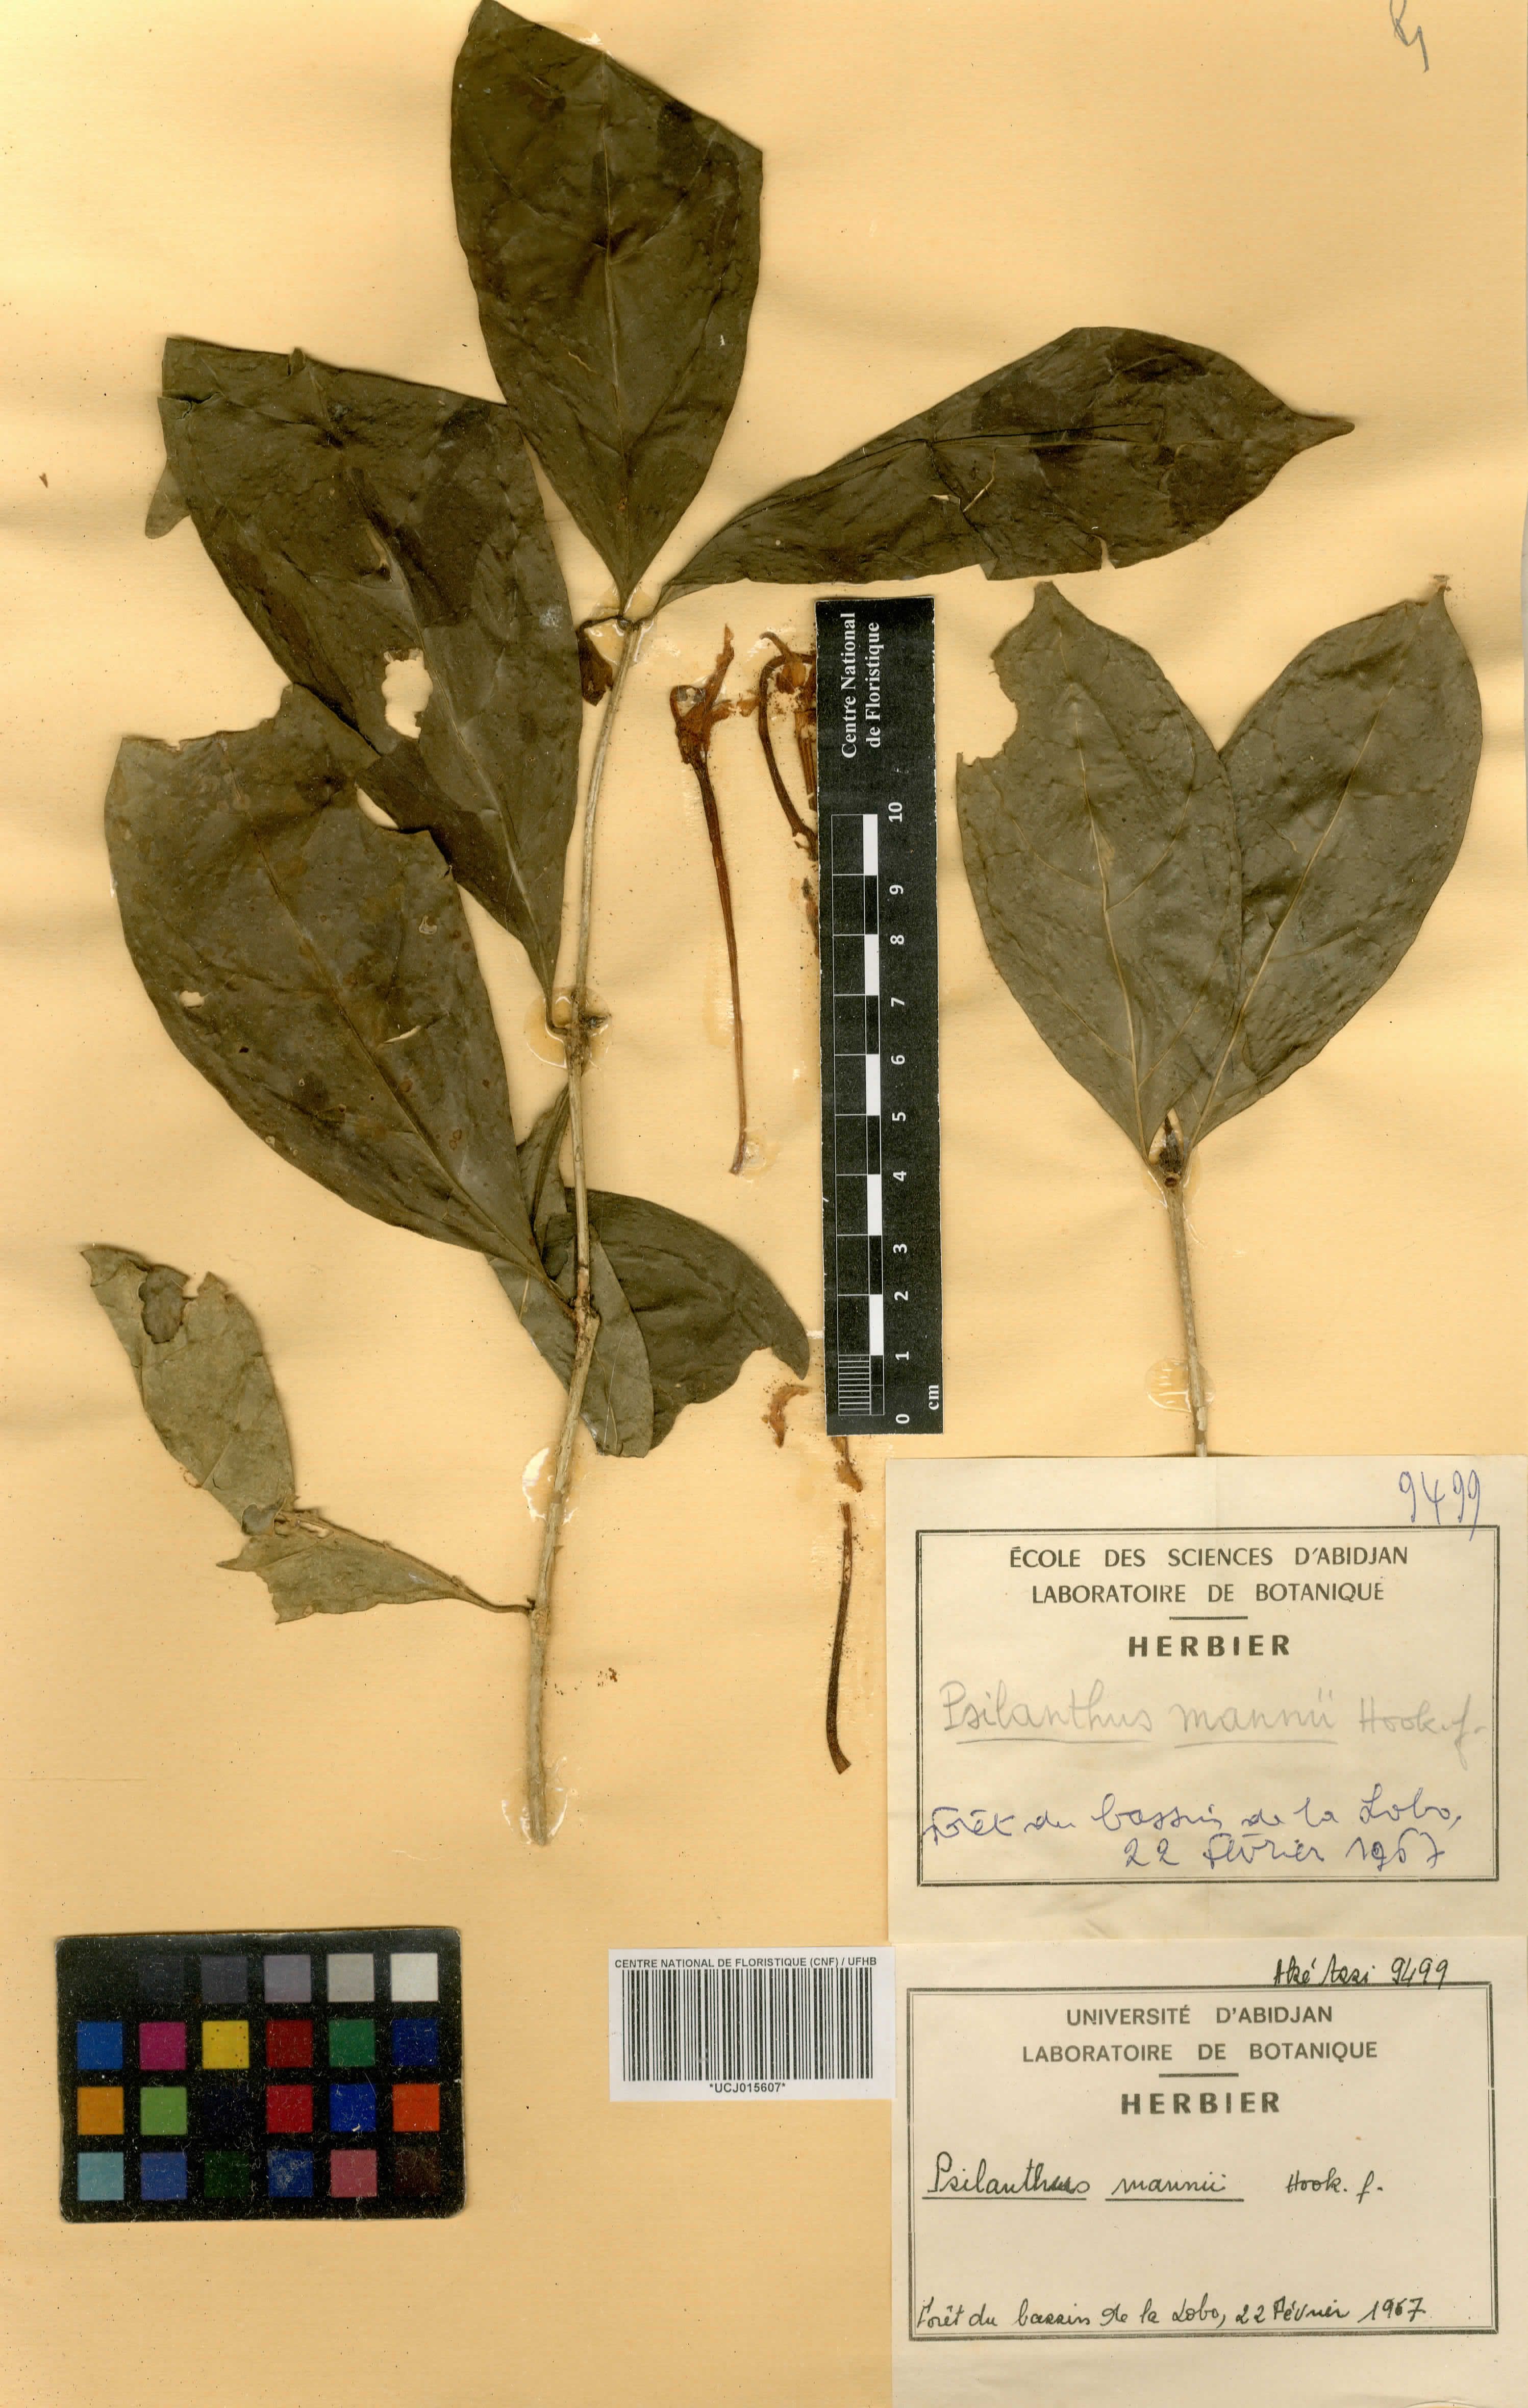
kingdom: Plantae
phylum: Tracheophyta
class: Magnoliopsida
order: Gentianales
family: Rubiaceae
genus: Coffea
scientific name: Coffea mannii
